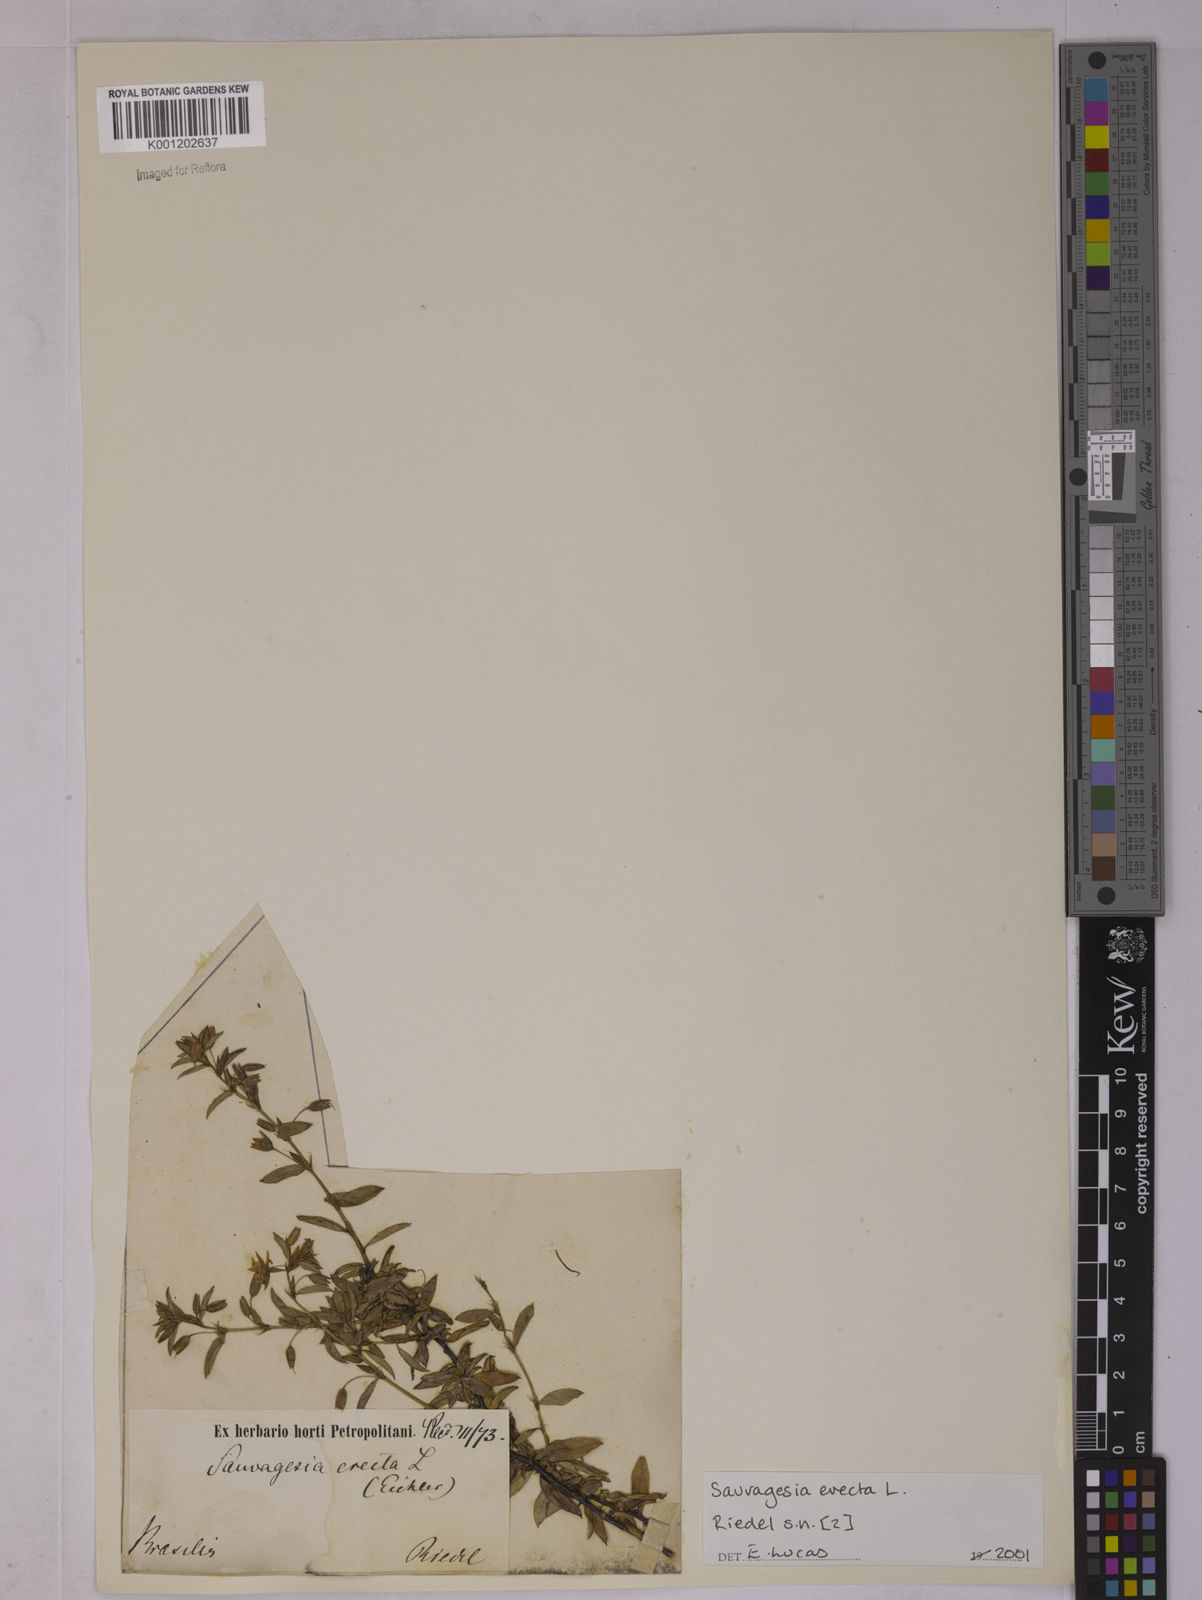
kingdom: Plantae
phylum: Tracheophyta
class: Magnoliopsida
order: Malpighiales
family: Ochnaceae
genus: Sauvagesia
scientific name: Sauvagesia erecta
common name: Creole tea
